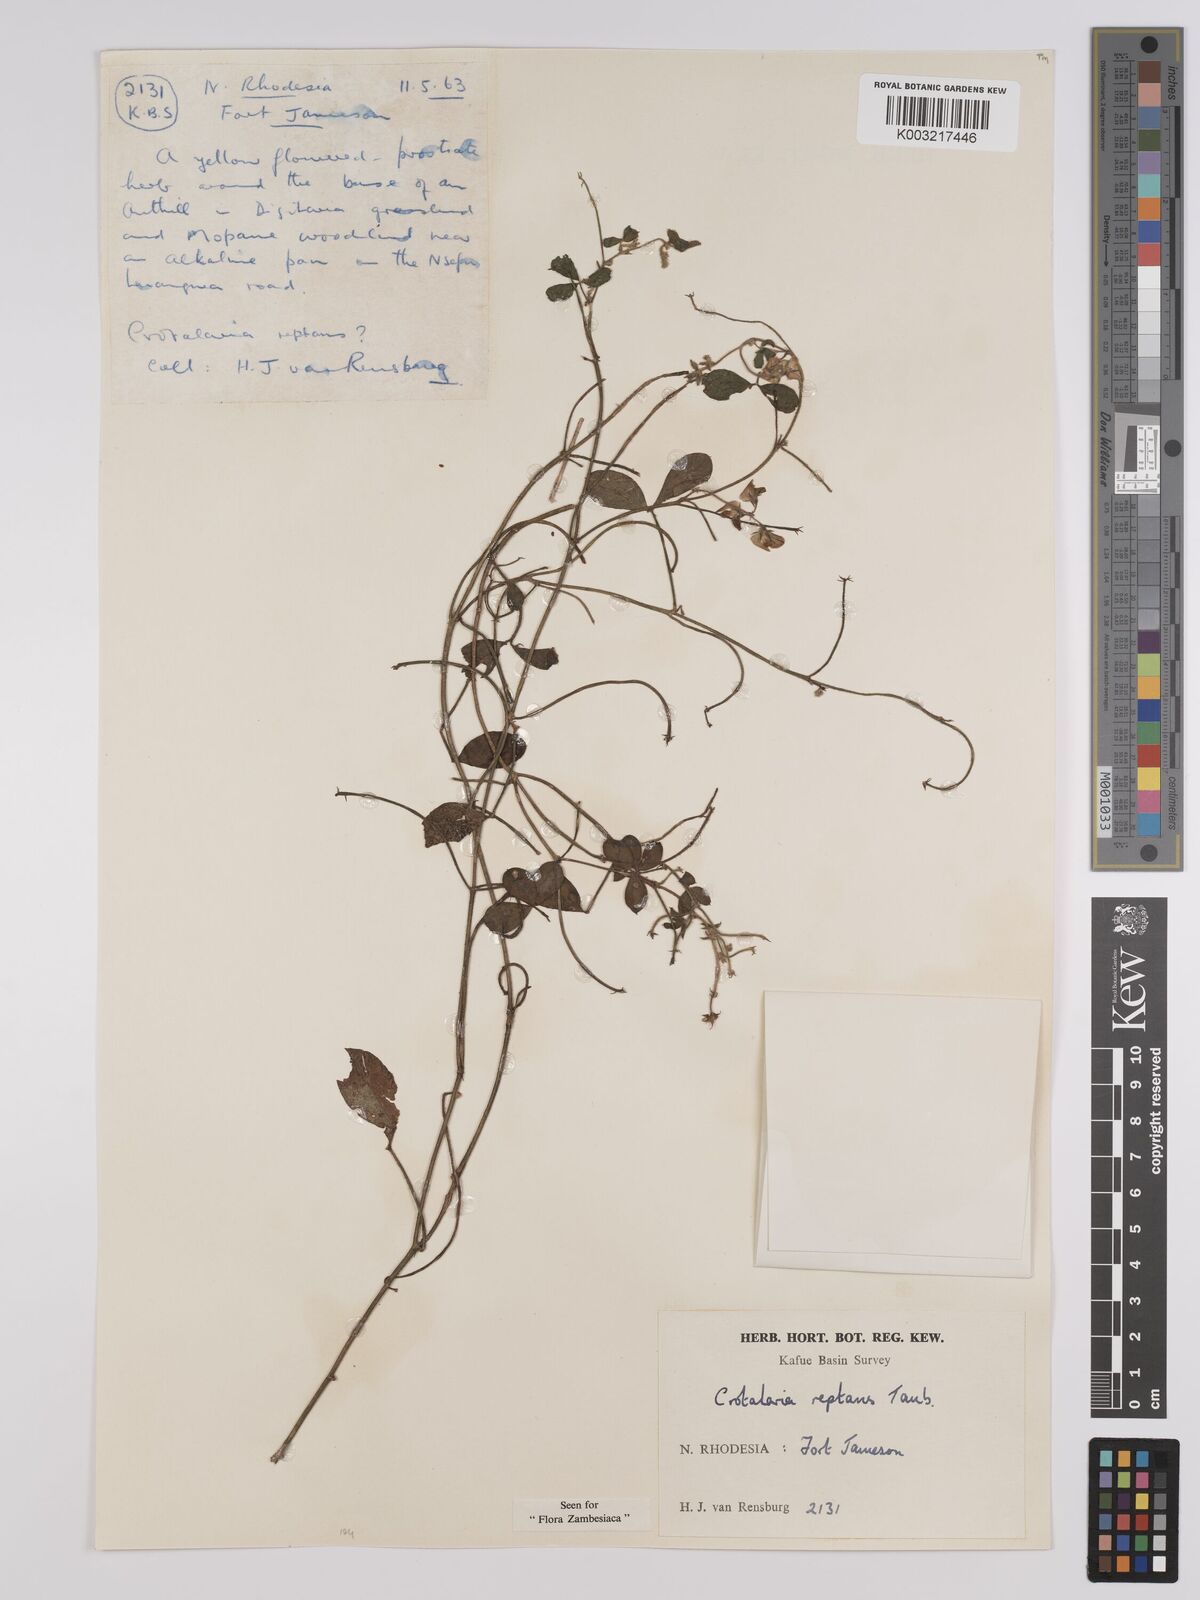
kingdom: Plantae
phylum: Tracheophyta
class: Magnoliopsida
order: Fabales
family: Fabaceae
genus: Crotalaria
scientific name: Crotalaria reptans
